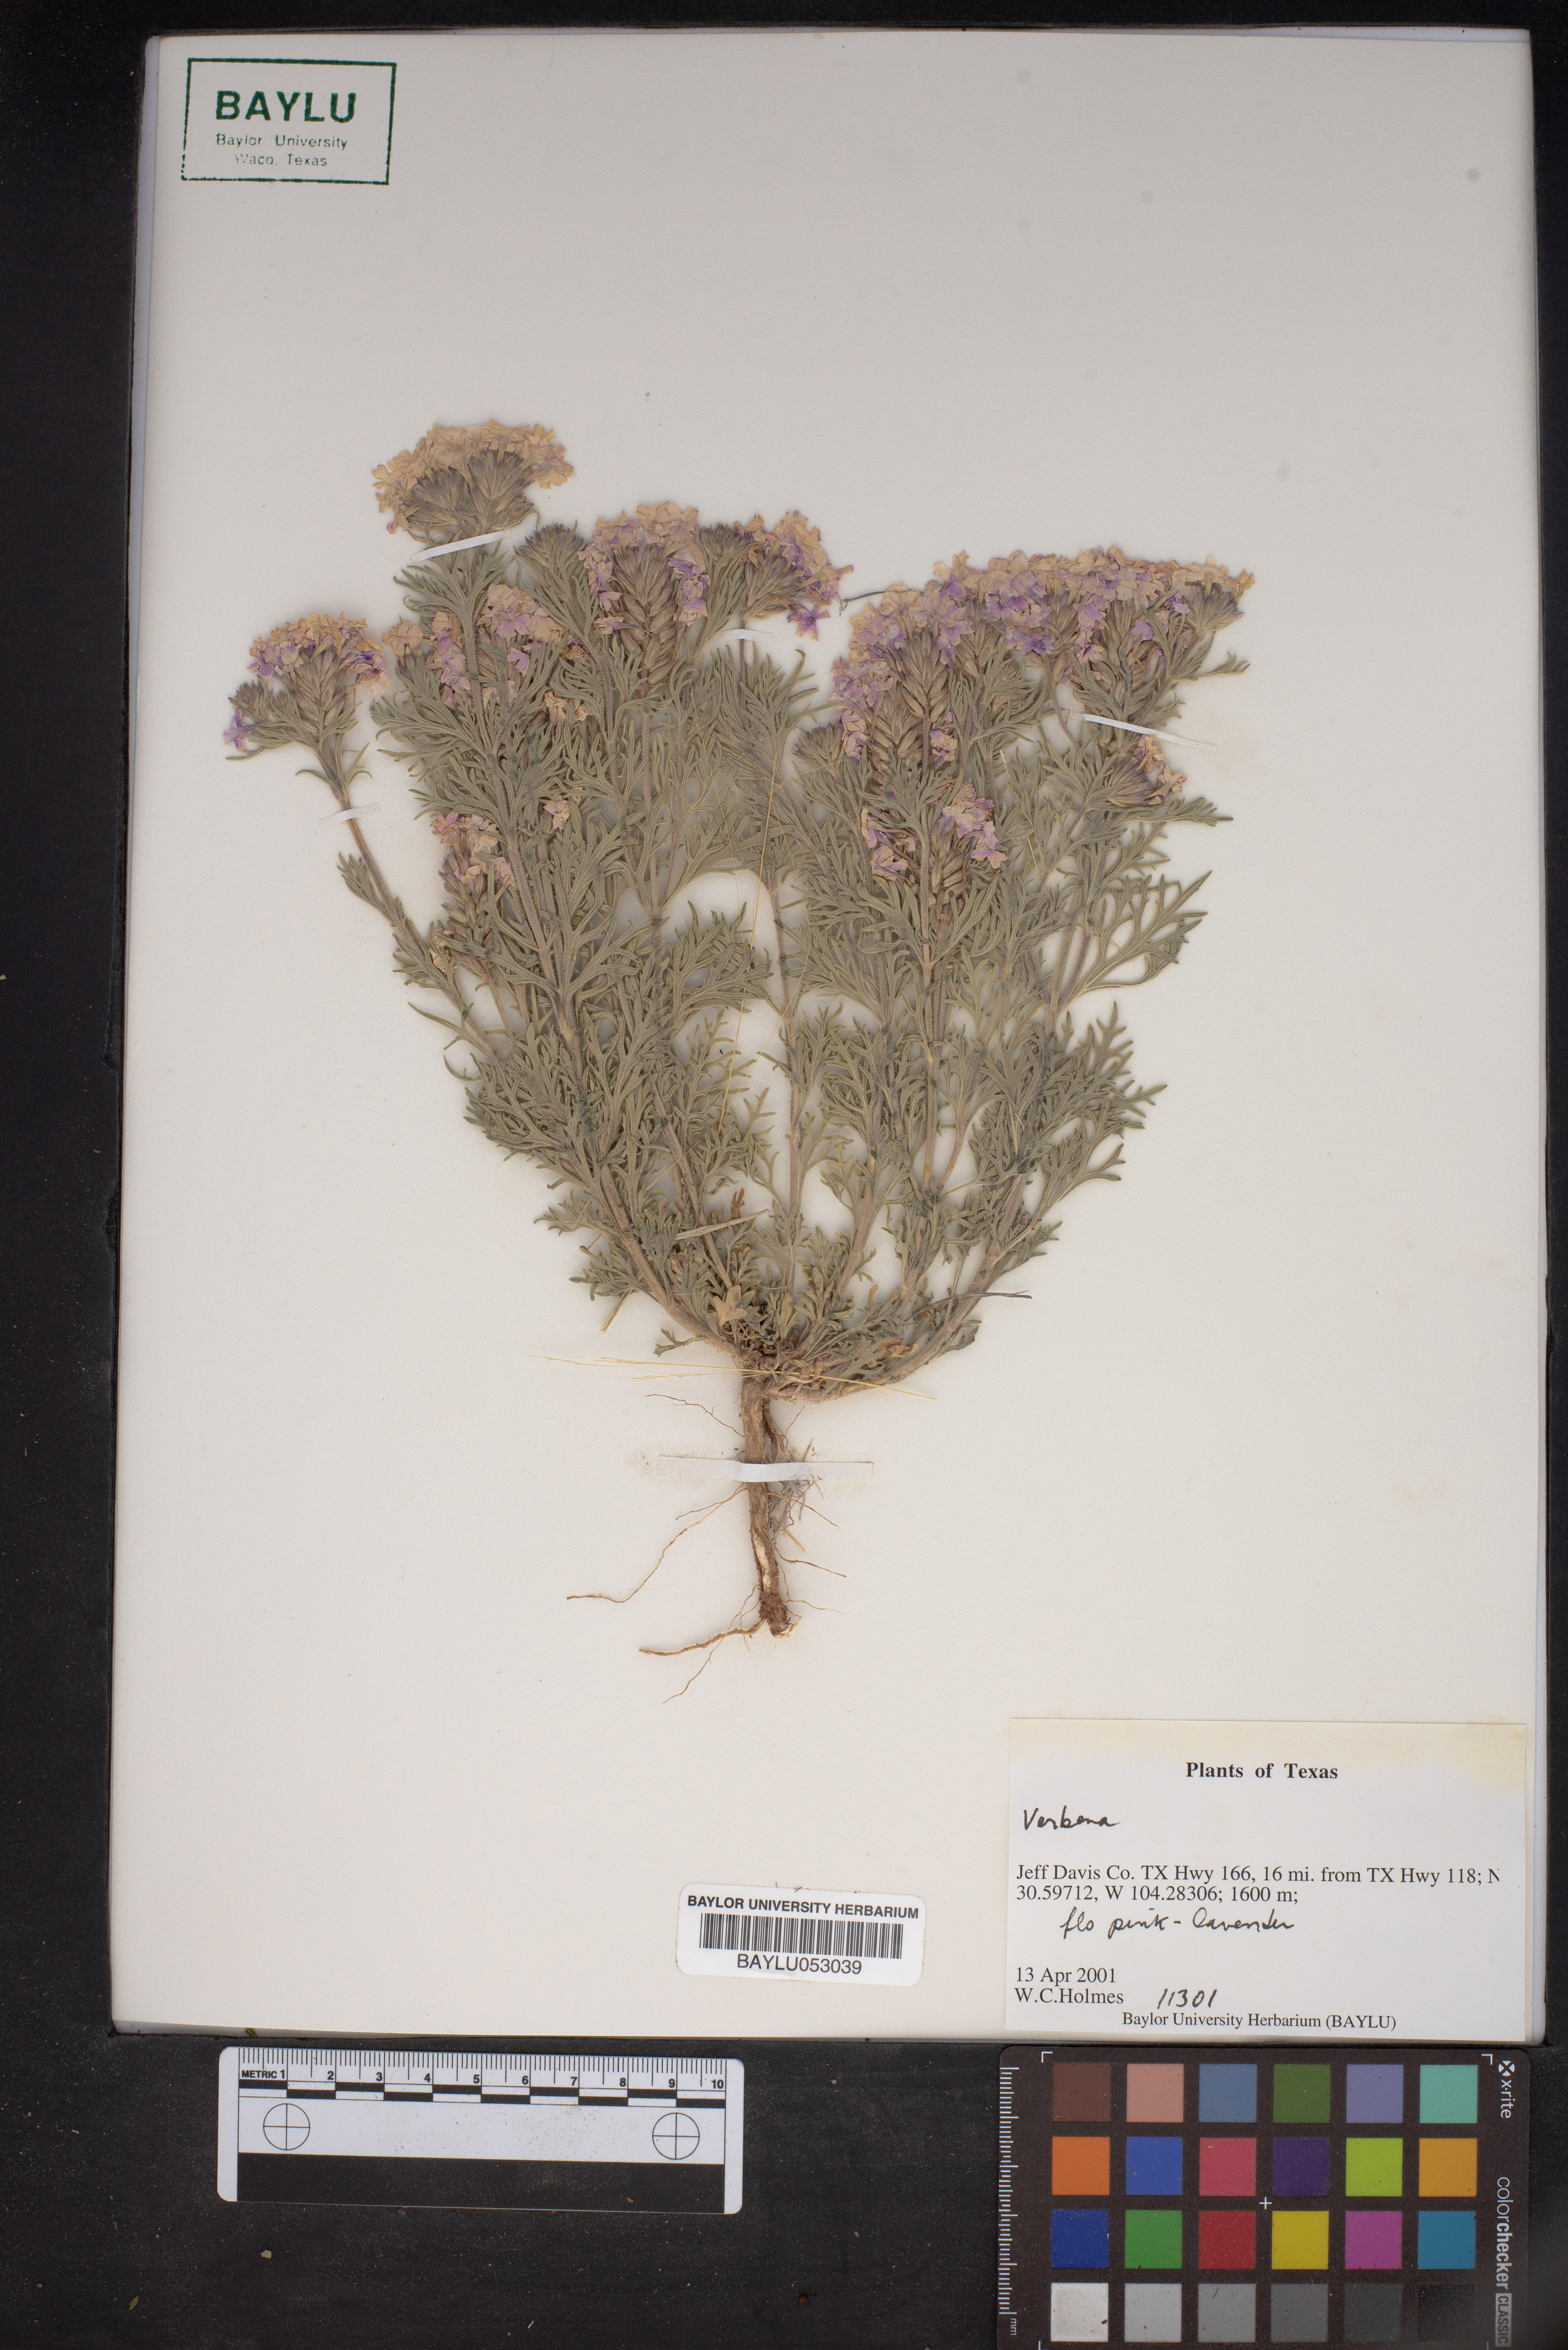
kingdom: Plantae
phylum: Tracheophyta
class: Magnoliopsida
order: Lamiales
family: Verbenaceae
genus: Verbena
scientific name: Verbena
